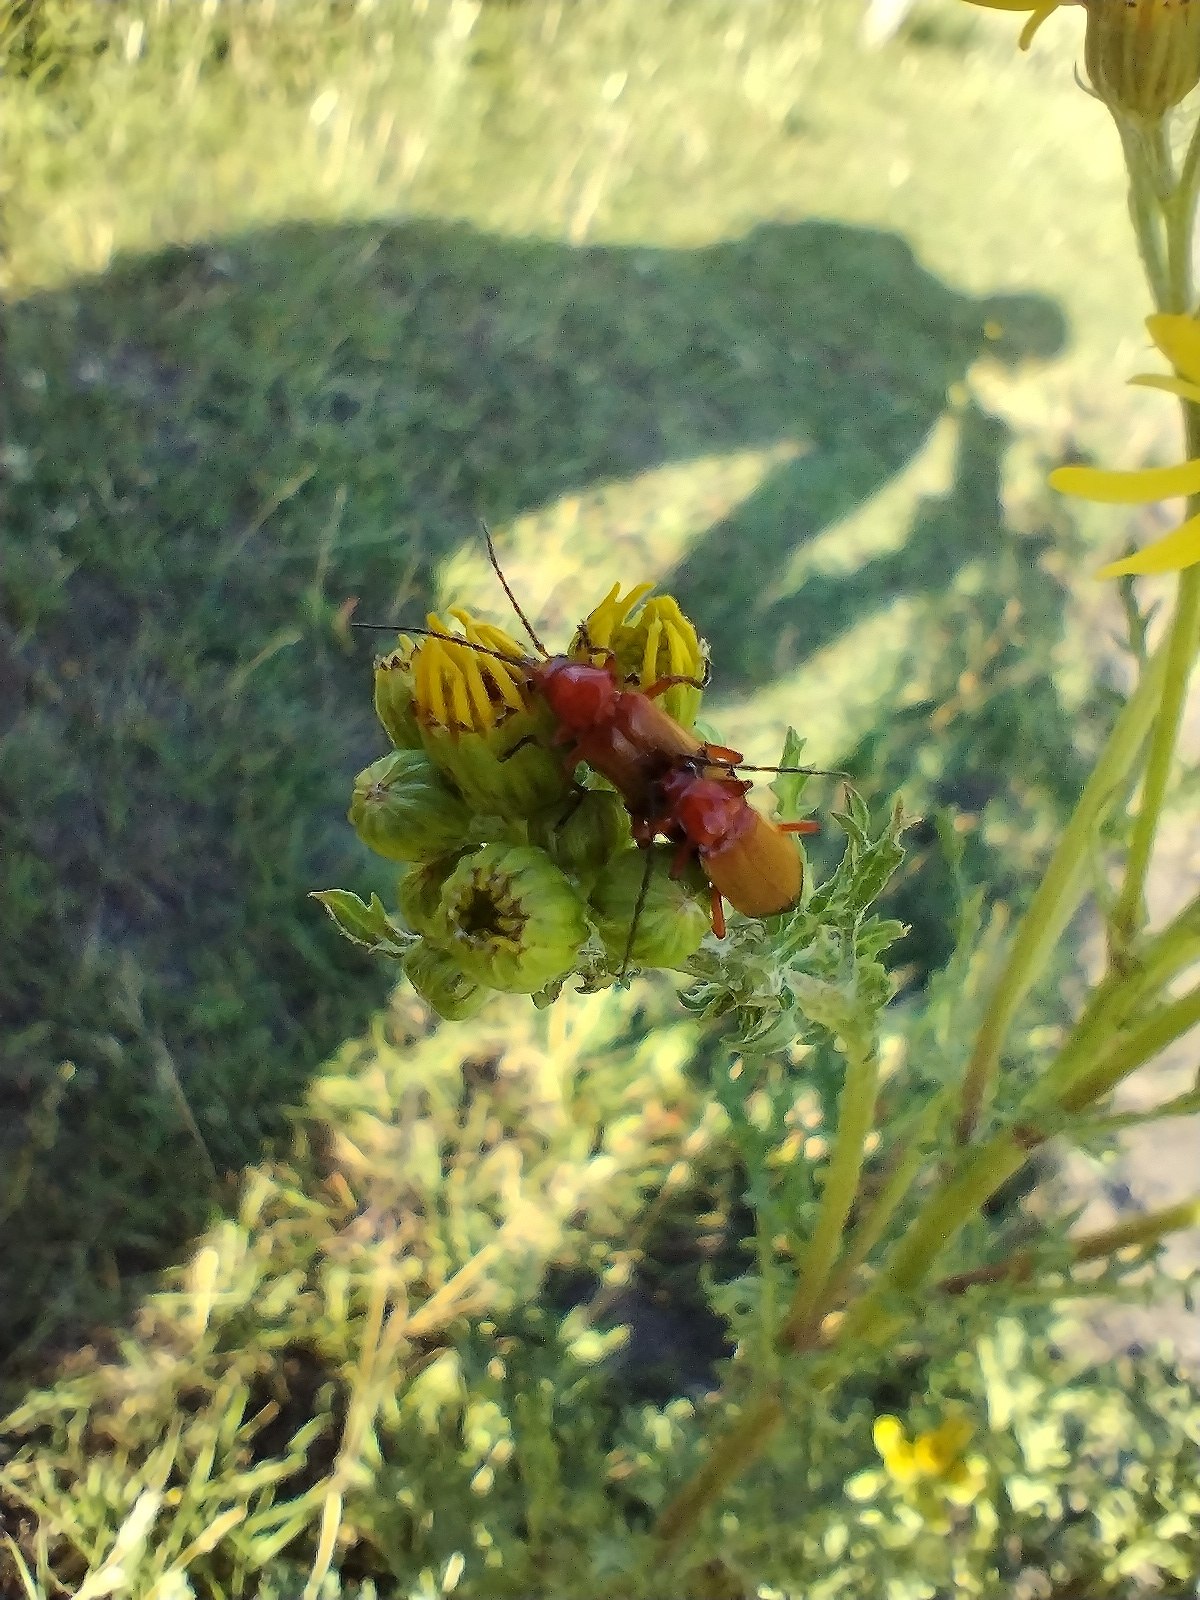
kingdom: Animalia
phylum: Arthropoda
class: Insecta
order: Coleoptera
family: Cantharidae
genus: Rhagonycha
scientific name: Rhagonycha fulva
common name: Præstebille
